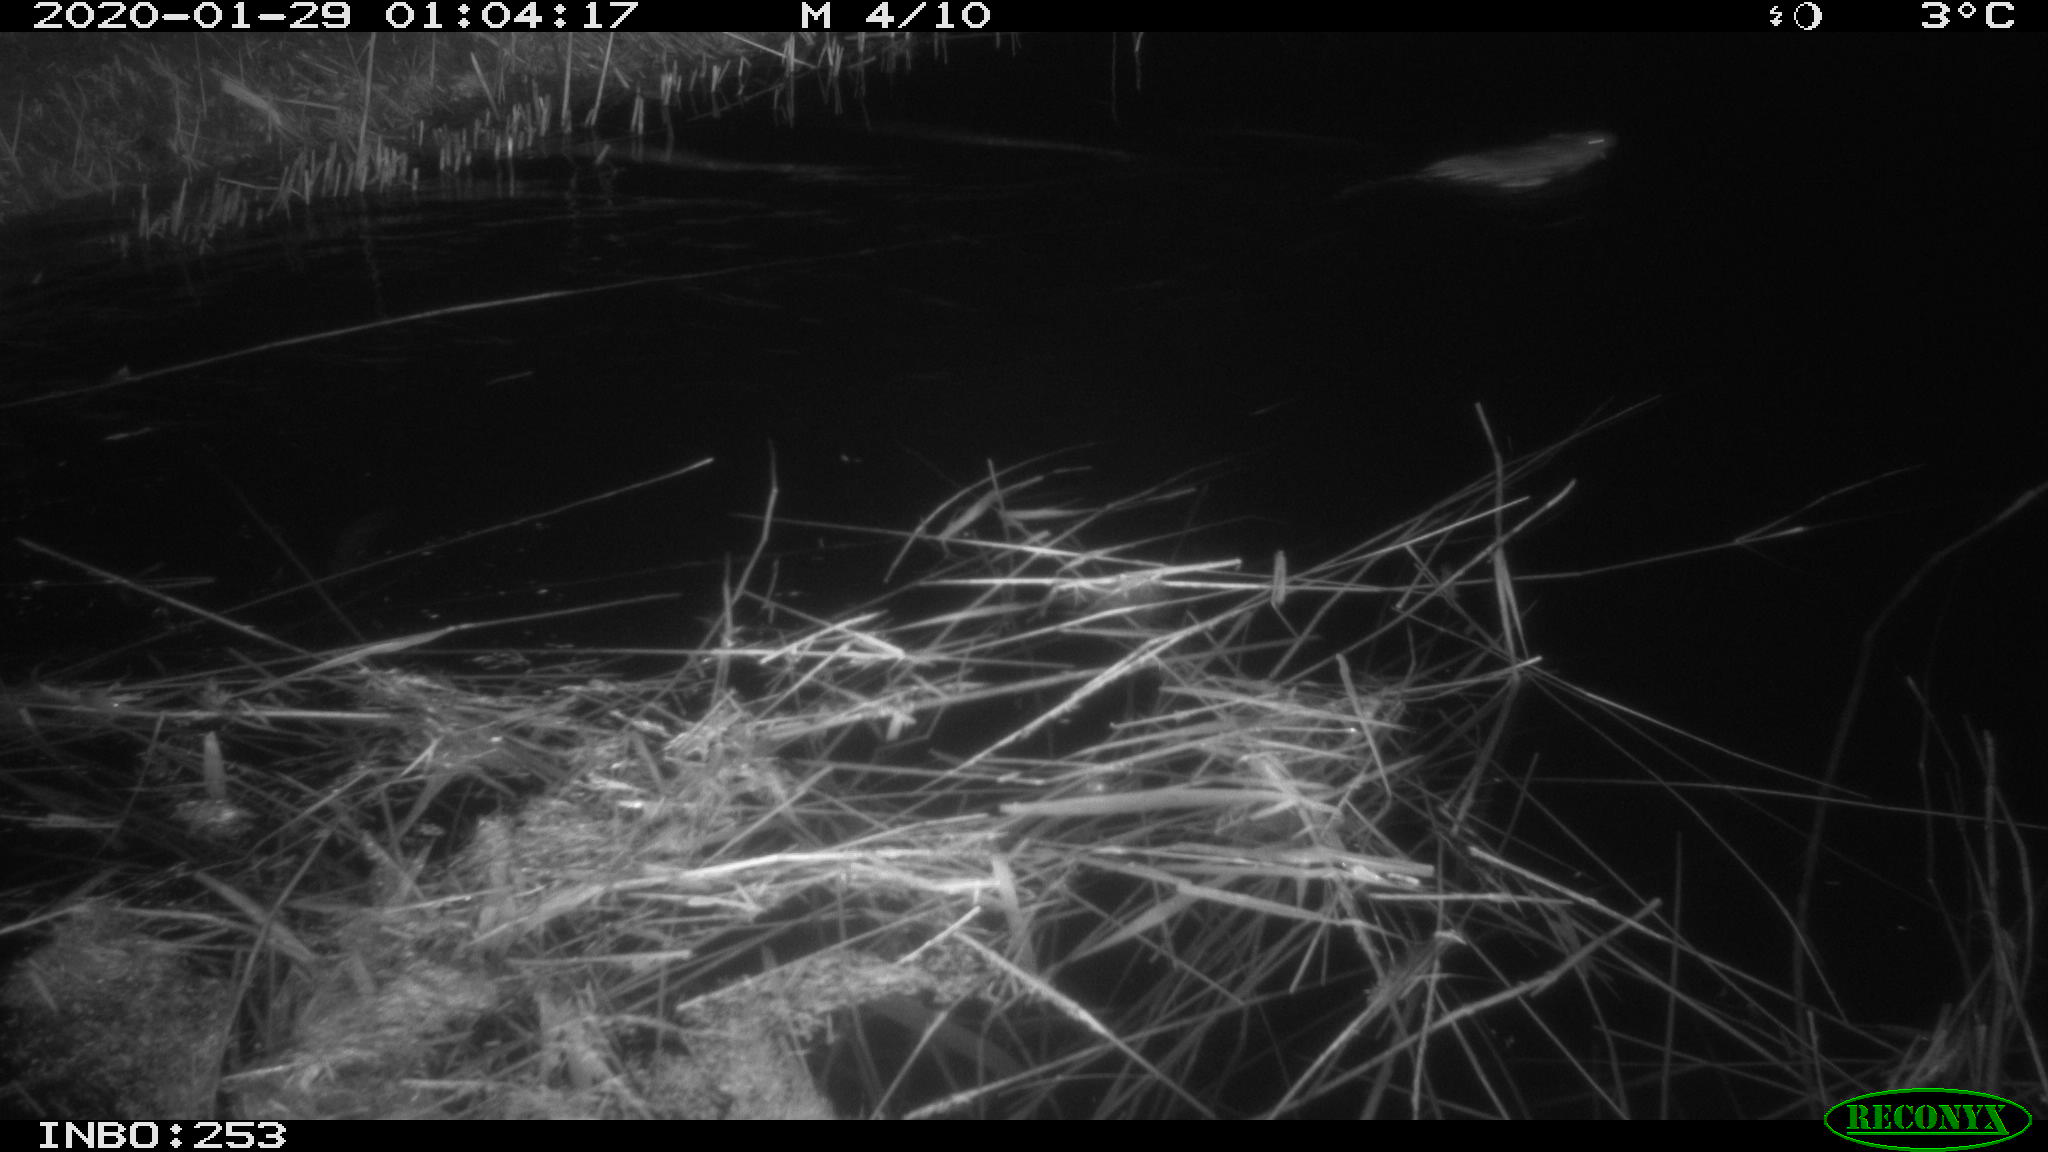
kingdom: Animalia
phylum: Chordata
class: Mammalia
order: Rodentia
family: Cricetidae
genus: Ondatra
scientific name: Ondatra zibethicus
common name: Muskrat
